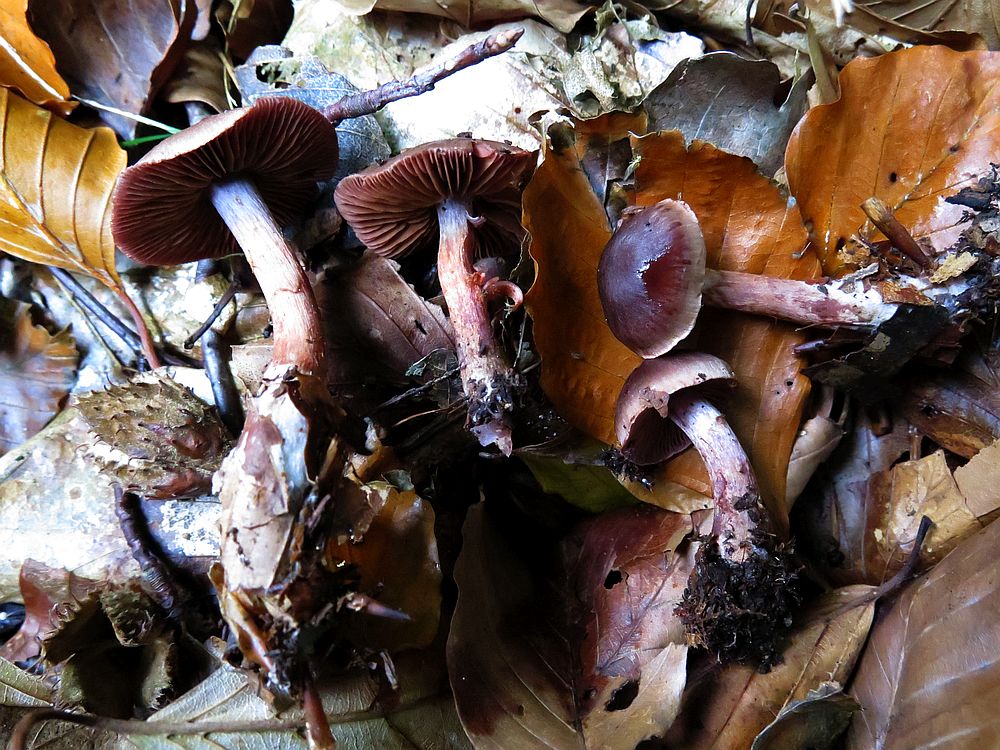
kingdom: Fungi
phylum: Basidiomycota
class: Agaricomycetes
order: Agaricales
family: Cortinariaceae
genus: Cortinarius
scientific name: Cortinarius danicus
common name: dansk slørhat
